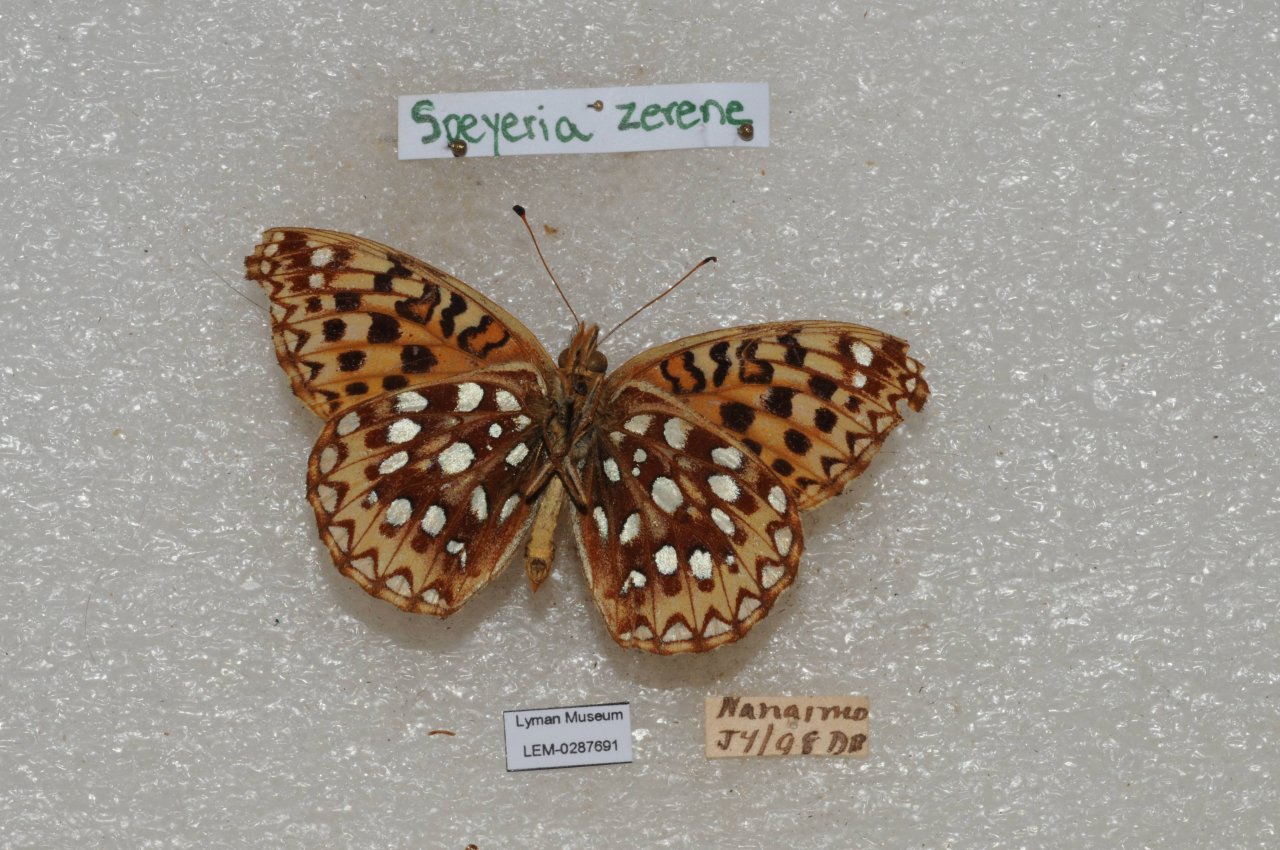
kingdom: Animalia
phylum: Arthropoda
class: Insecta
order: Lepidoptera
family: Nymphalidae
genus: Speyeria
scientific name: Speyeria zerene
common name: Zerene Fritillary
